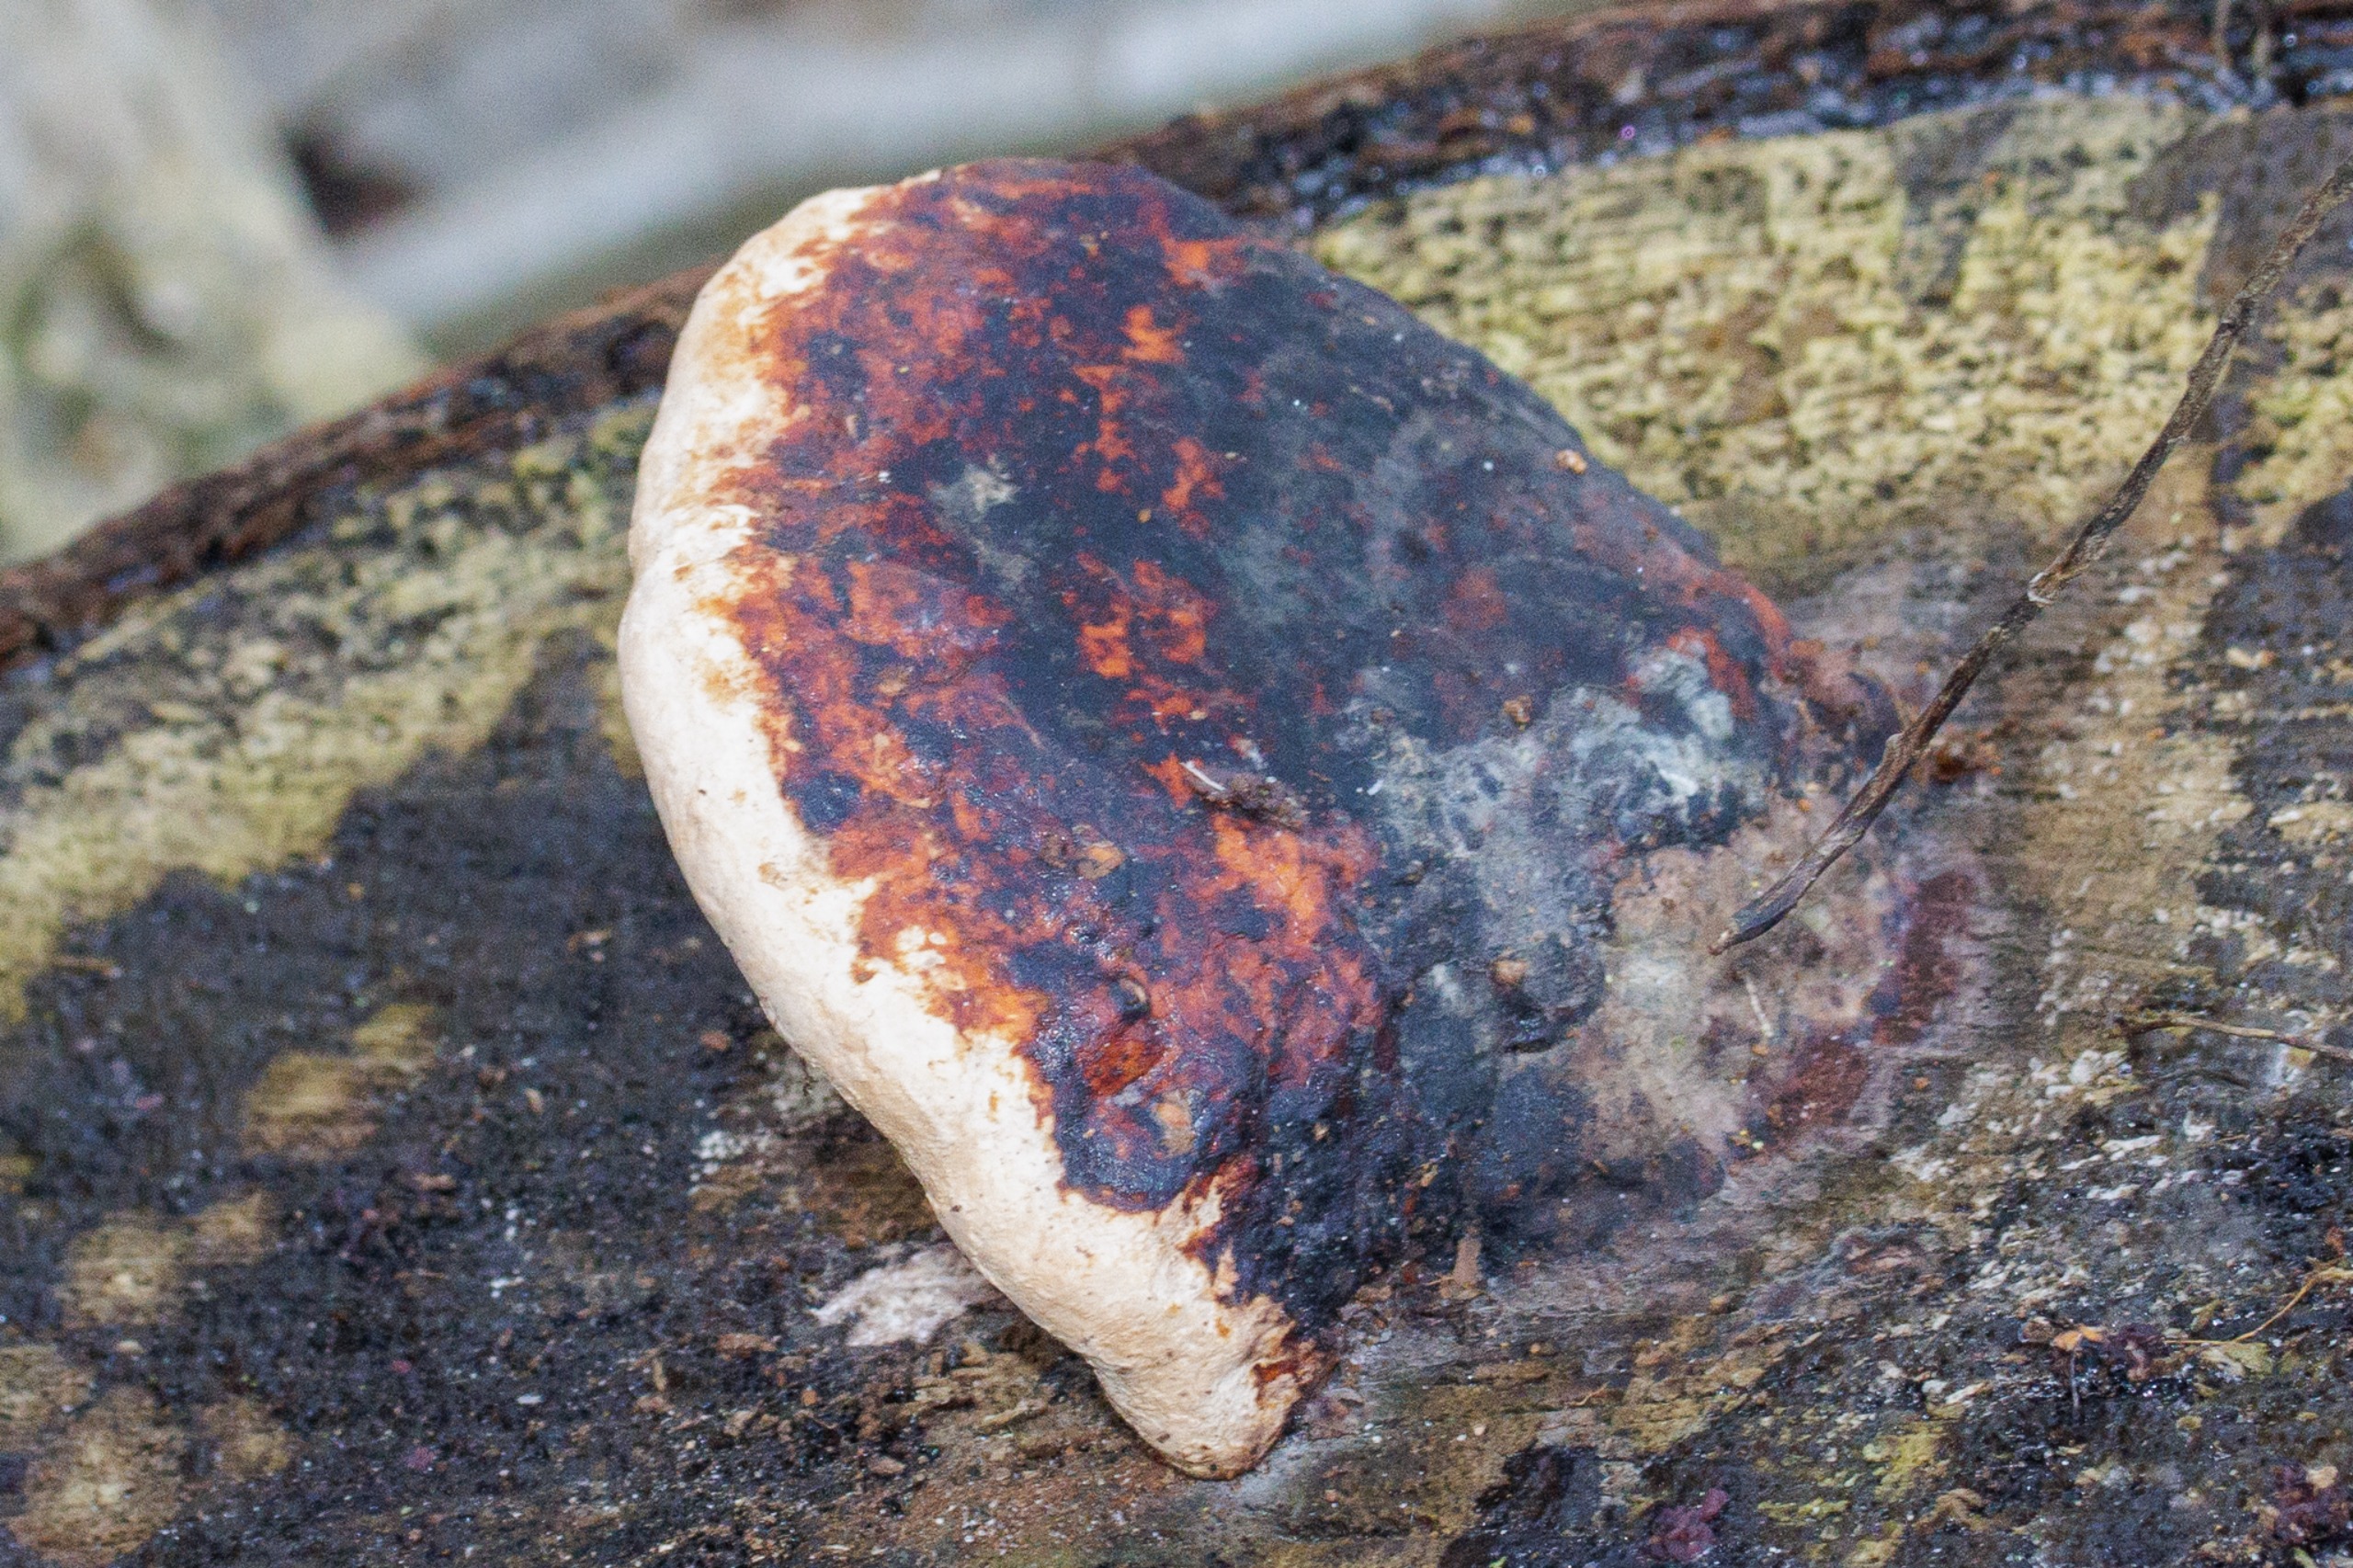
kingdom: Fungi
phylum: Basidiomycota
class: Agaricomycetes
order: Polyporales
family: Fomitopsidaceae
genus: Fomitopsis
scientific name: Fomitopsis pinicola
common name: Randbæltet hovporesvamp
